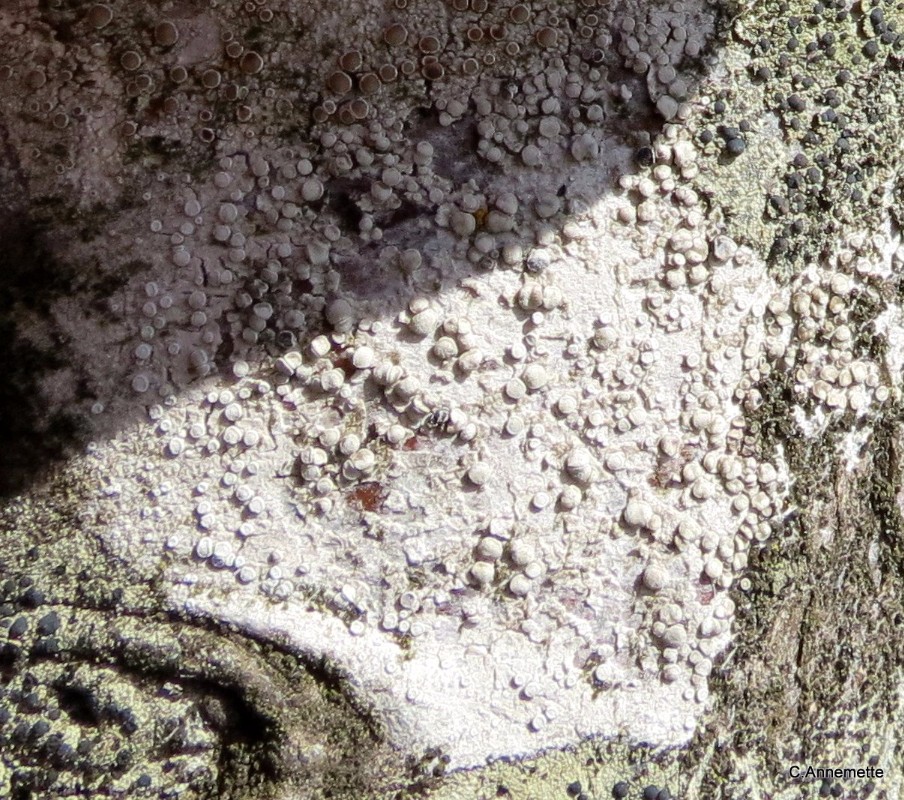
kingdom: Fungi
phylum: Ascomycota
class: Lecanoromycetes
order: Lecanorales
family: Lecanoraceae
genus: Glaucomaria
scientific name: Glaucomaria carpinea
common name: hviddugget kantskivelav
